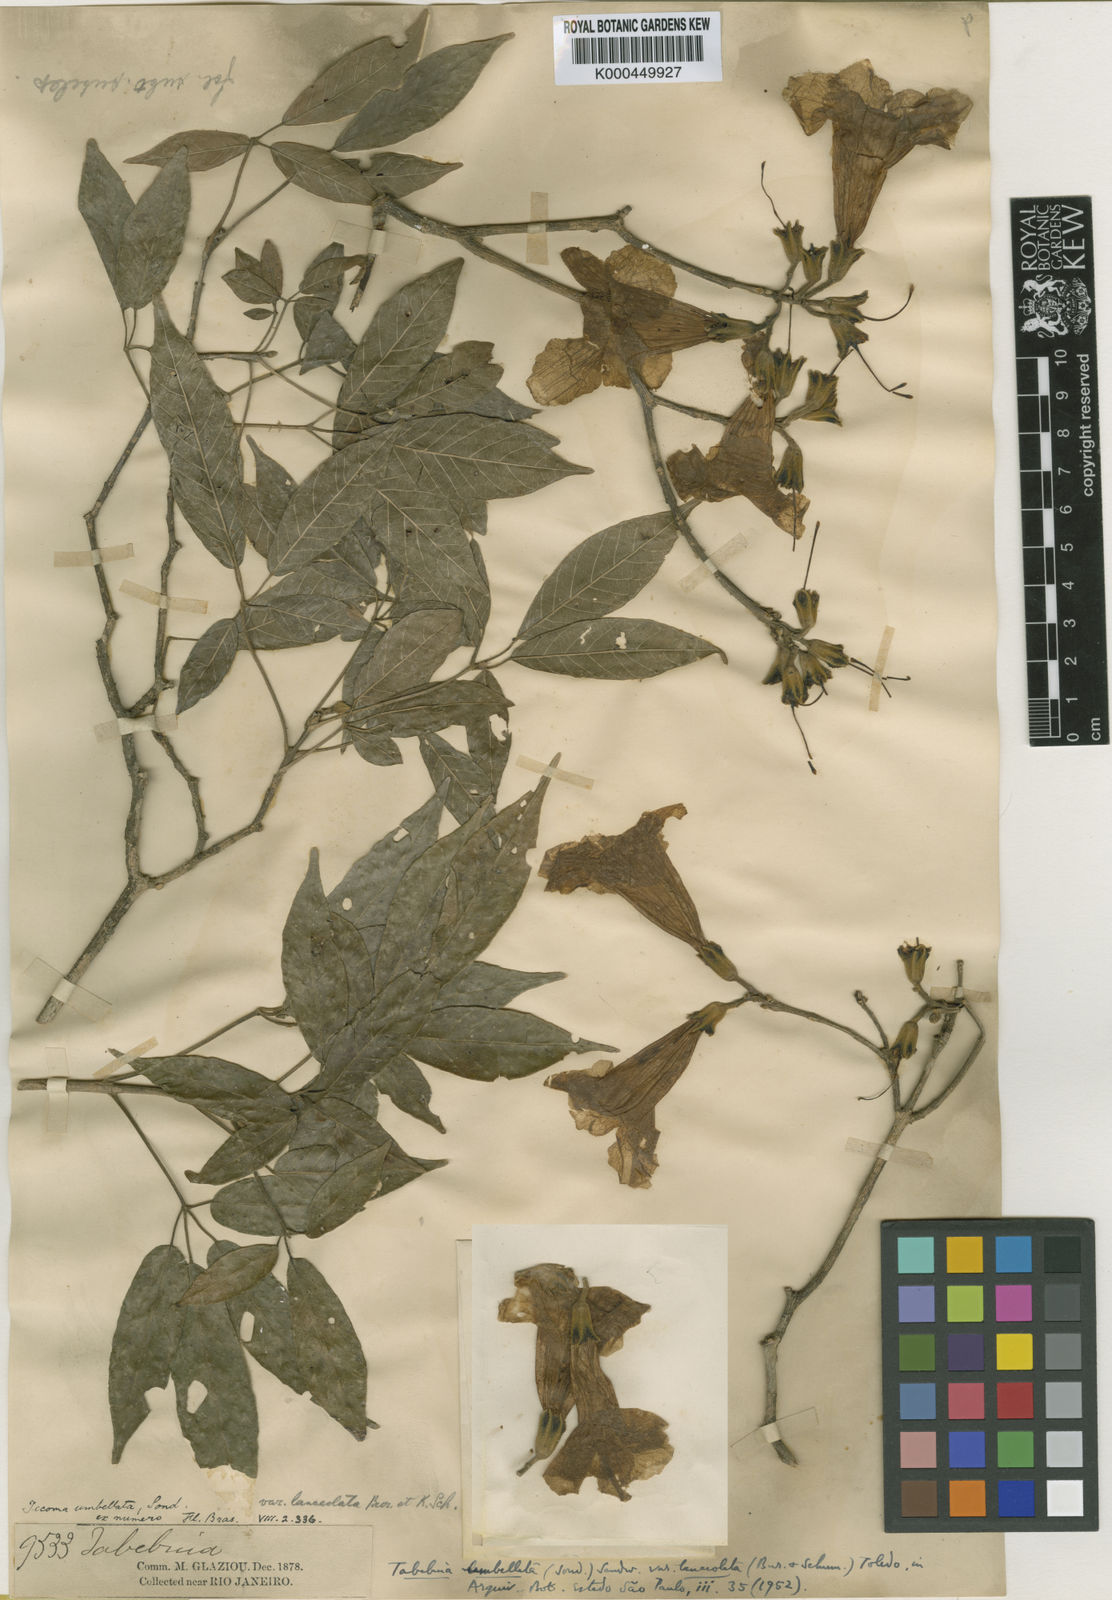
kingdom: Plantae
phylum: Tracheophyta
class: Magnoliopsida
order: Lamiales
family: Bignoniaceae
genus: Handroanthus
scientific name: Handroanthus umbellatus
